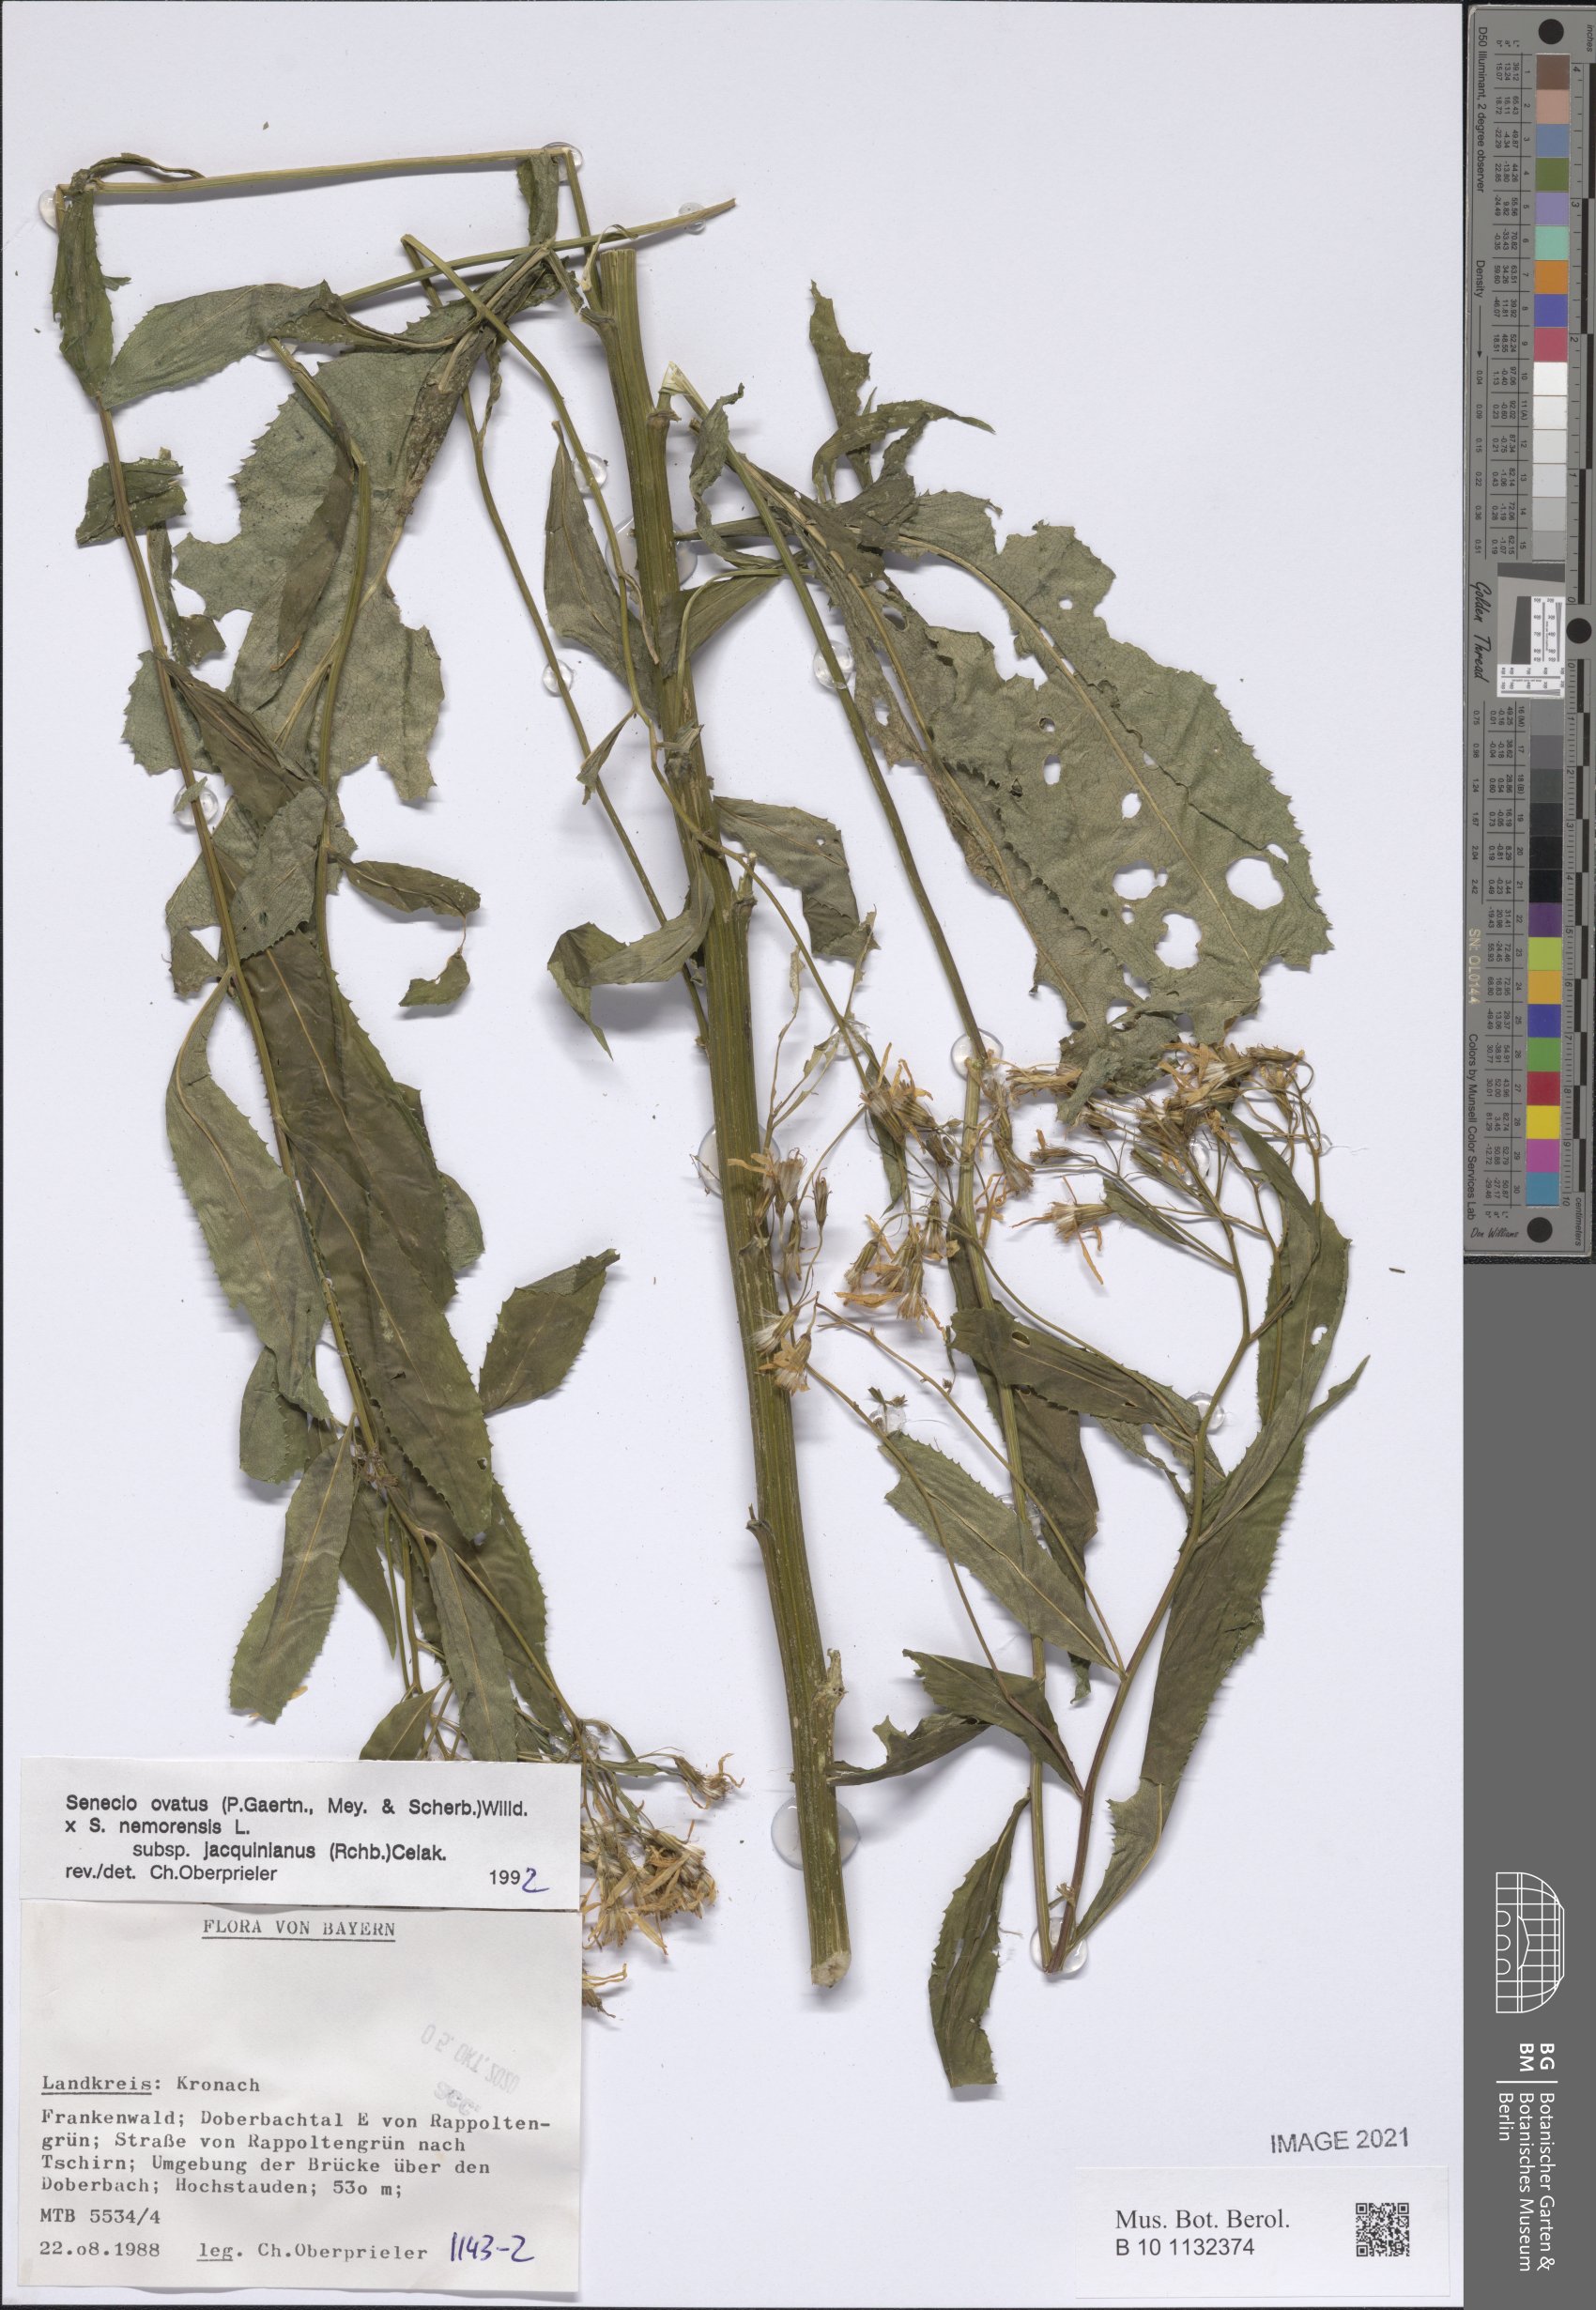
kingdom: Plantae
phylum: Tracheophyta
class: Magnoliopsida
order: Asterales
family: Asteraceae
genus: Senecio
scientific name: Senecio ovatus
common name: Wood ragwort
